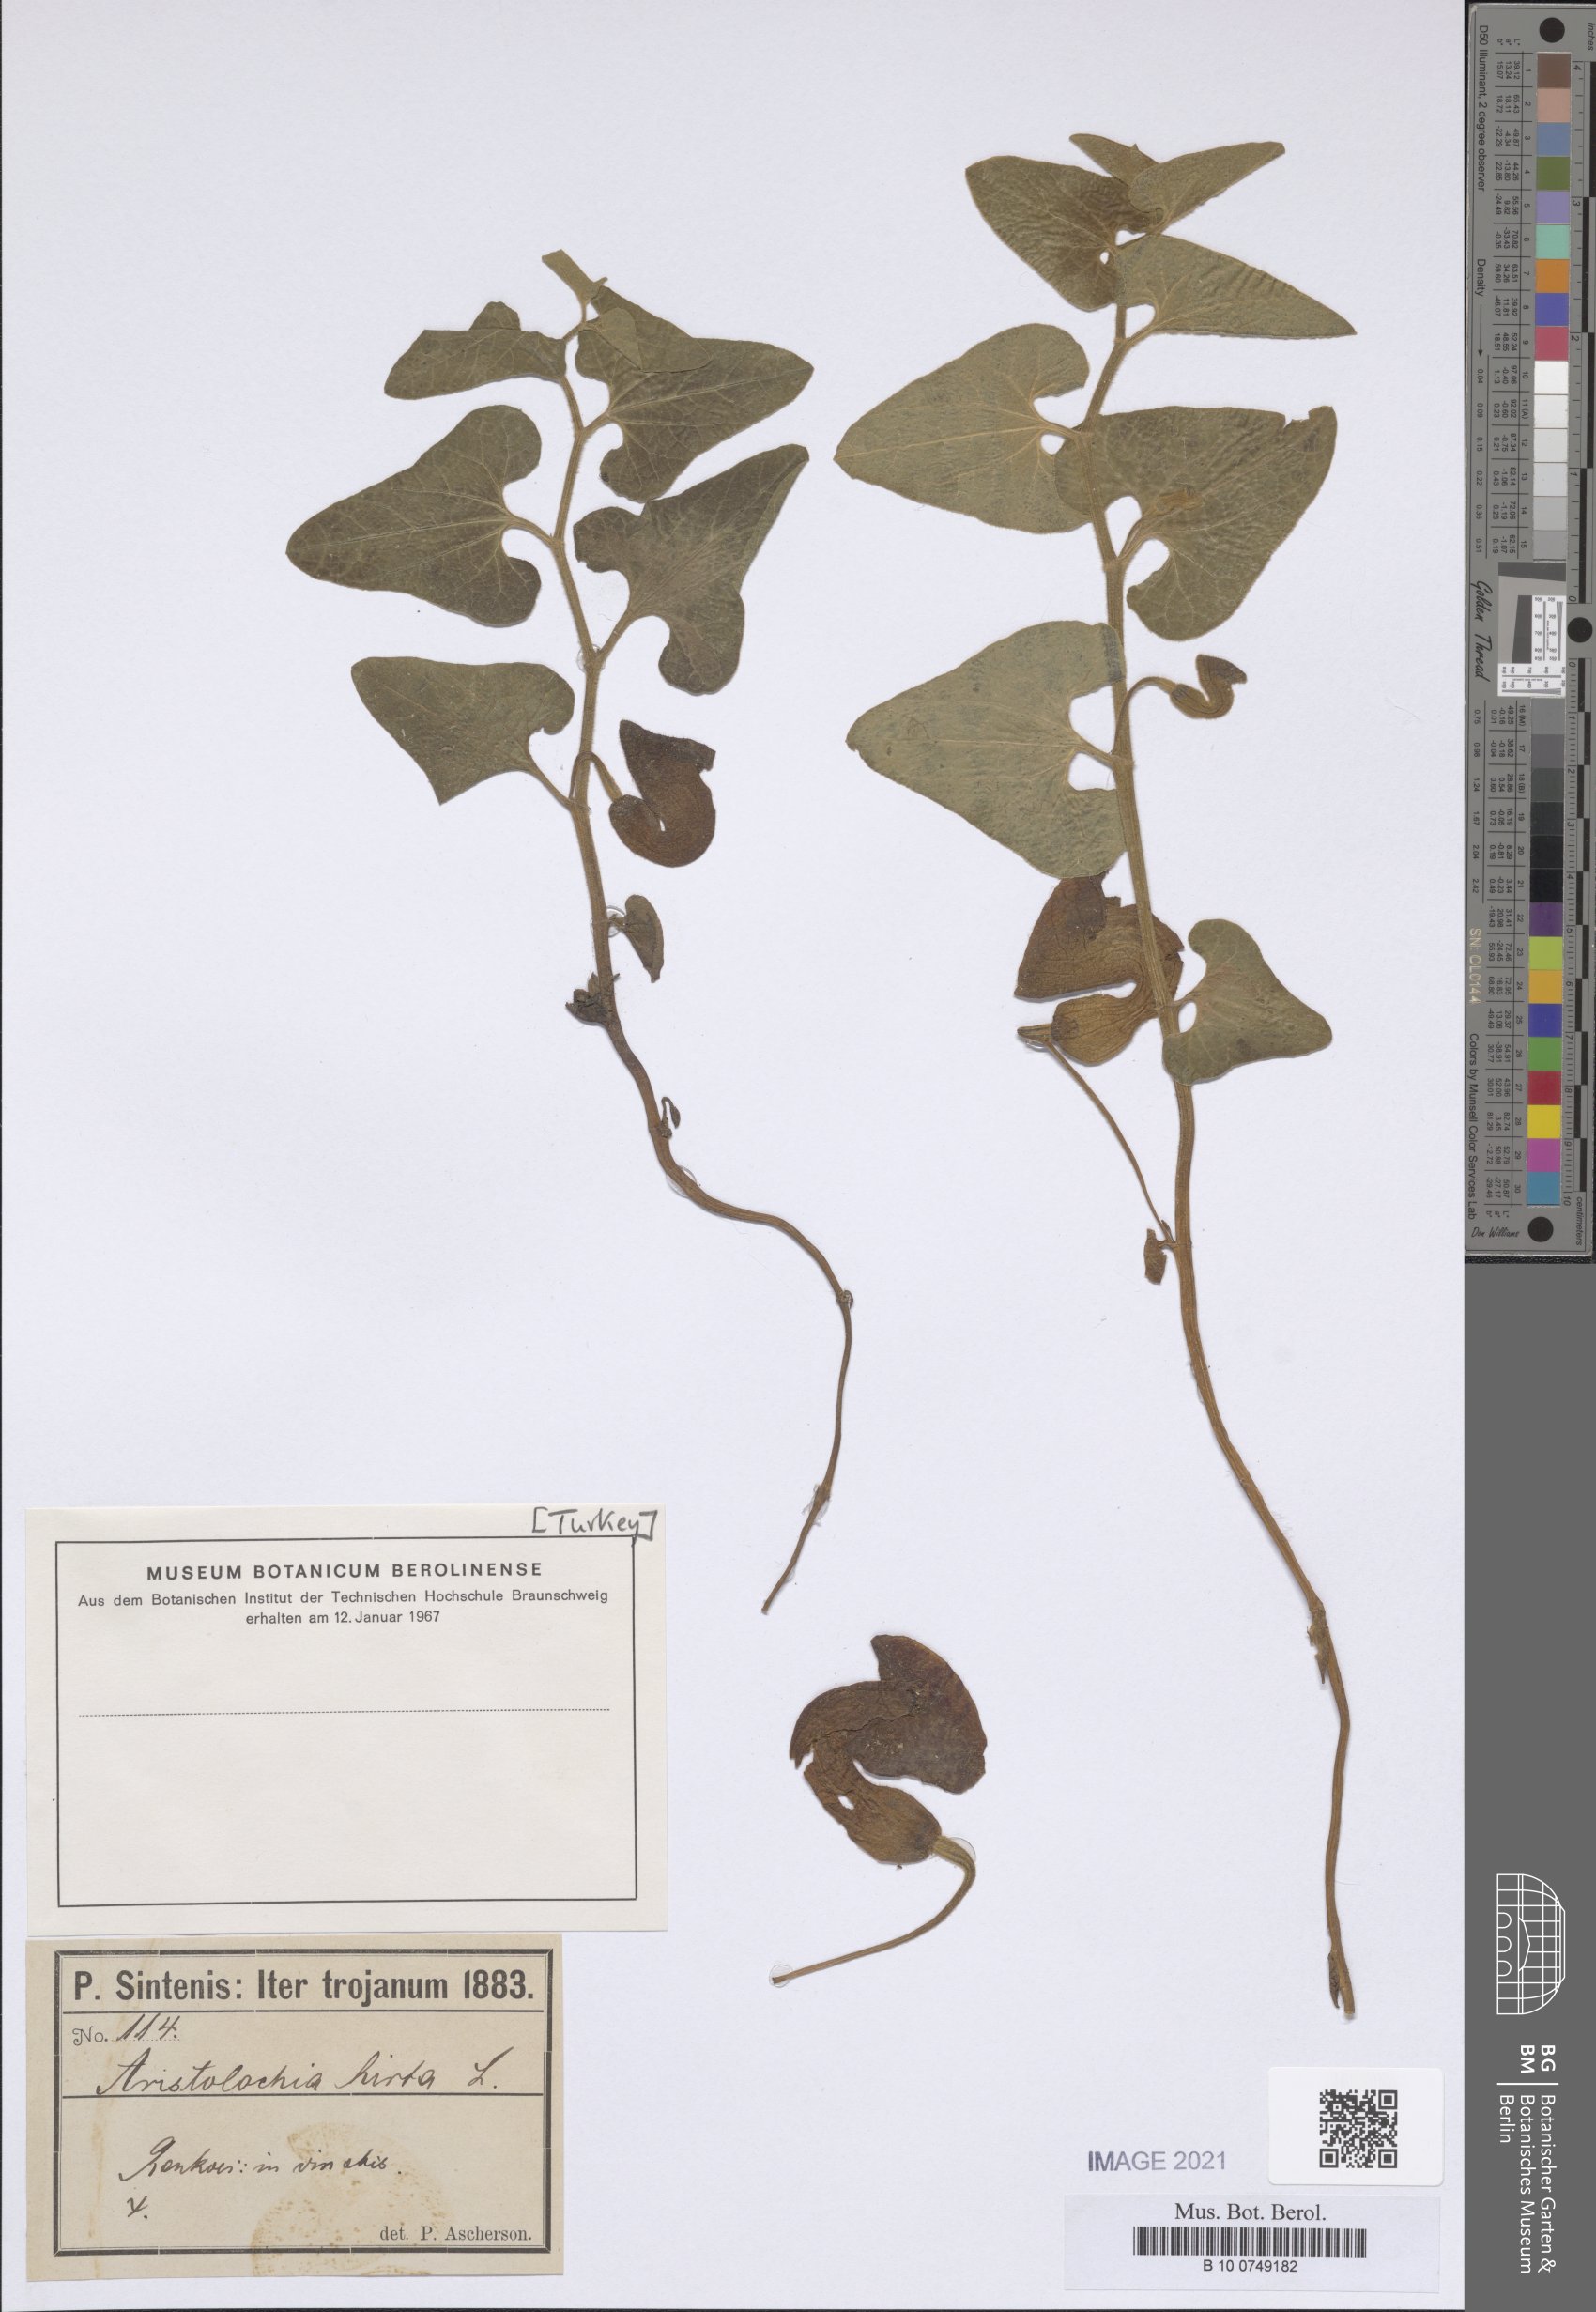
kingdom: Plantae
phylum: Tracheophyta
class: Magnoliopsida
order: Piperales
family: Aristolochiaceae
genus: Aristolochia
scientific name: Aristolochia hirta
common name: Breckland birthwort
